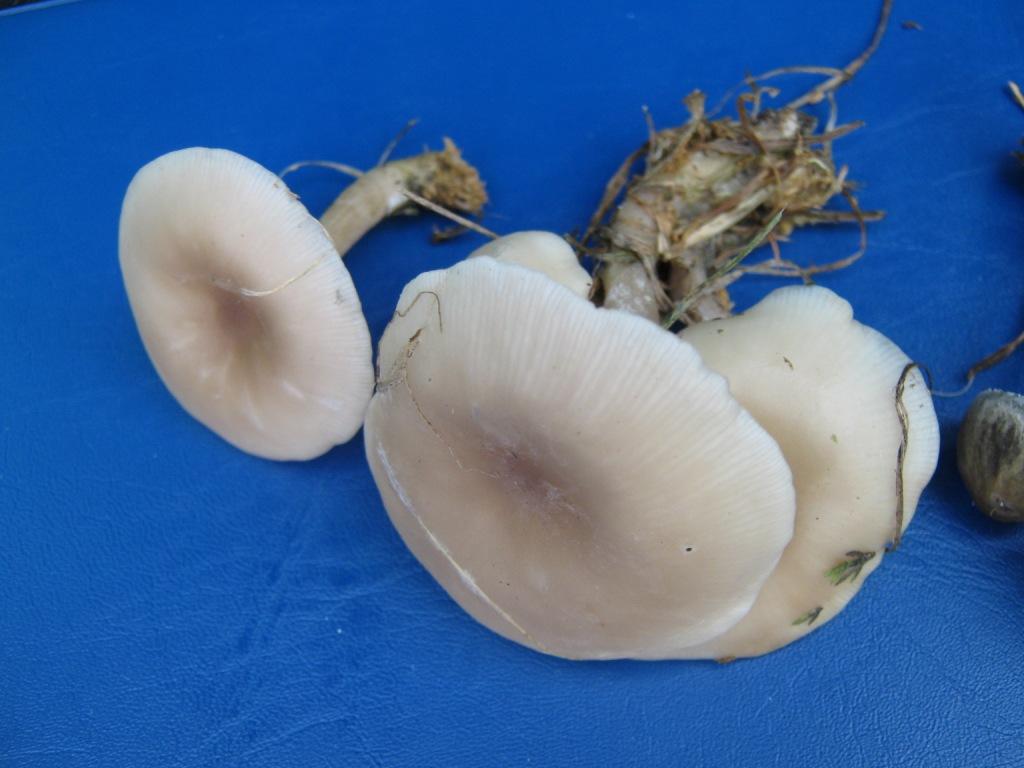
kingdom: Fungi
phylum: Basidiomycota
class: Agaricomycetes
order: Agaricales
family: Tricholomataceae
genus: Clitocybe
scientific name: Clitocybe amarescens
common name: gødnings-tragthat
